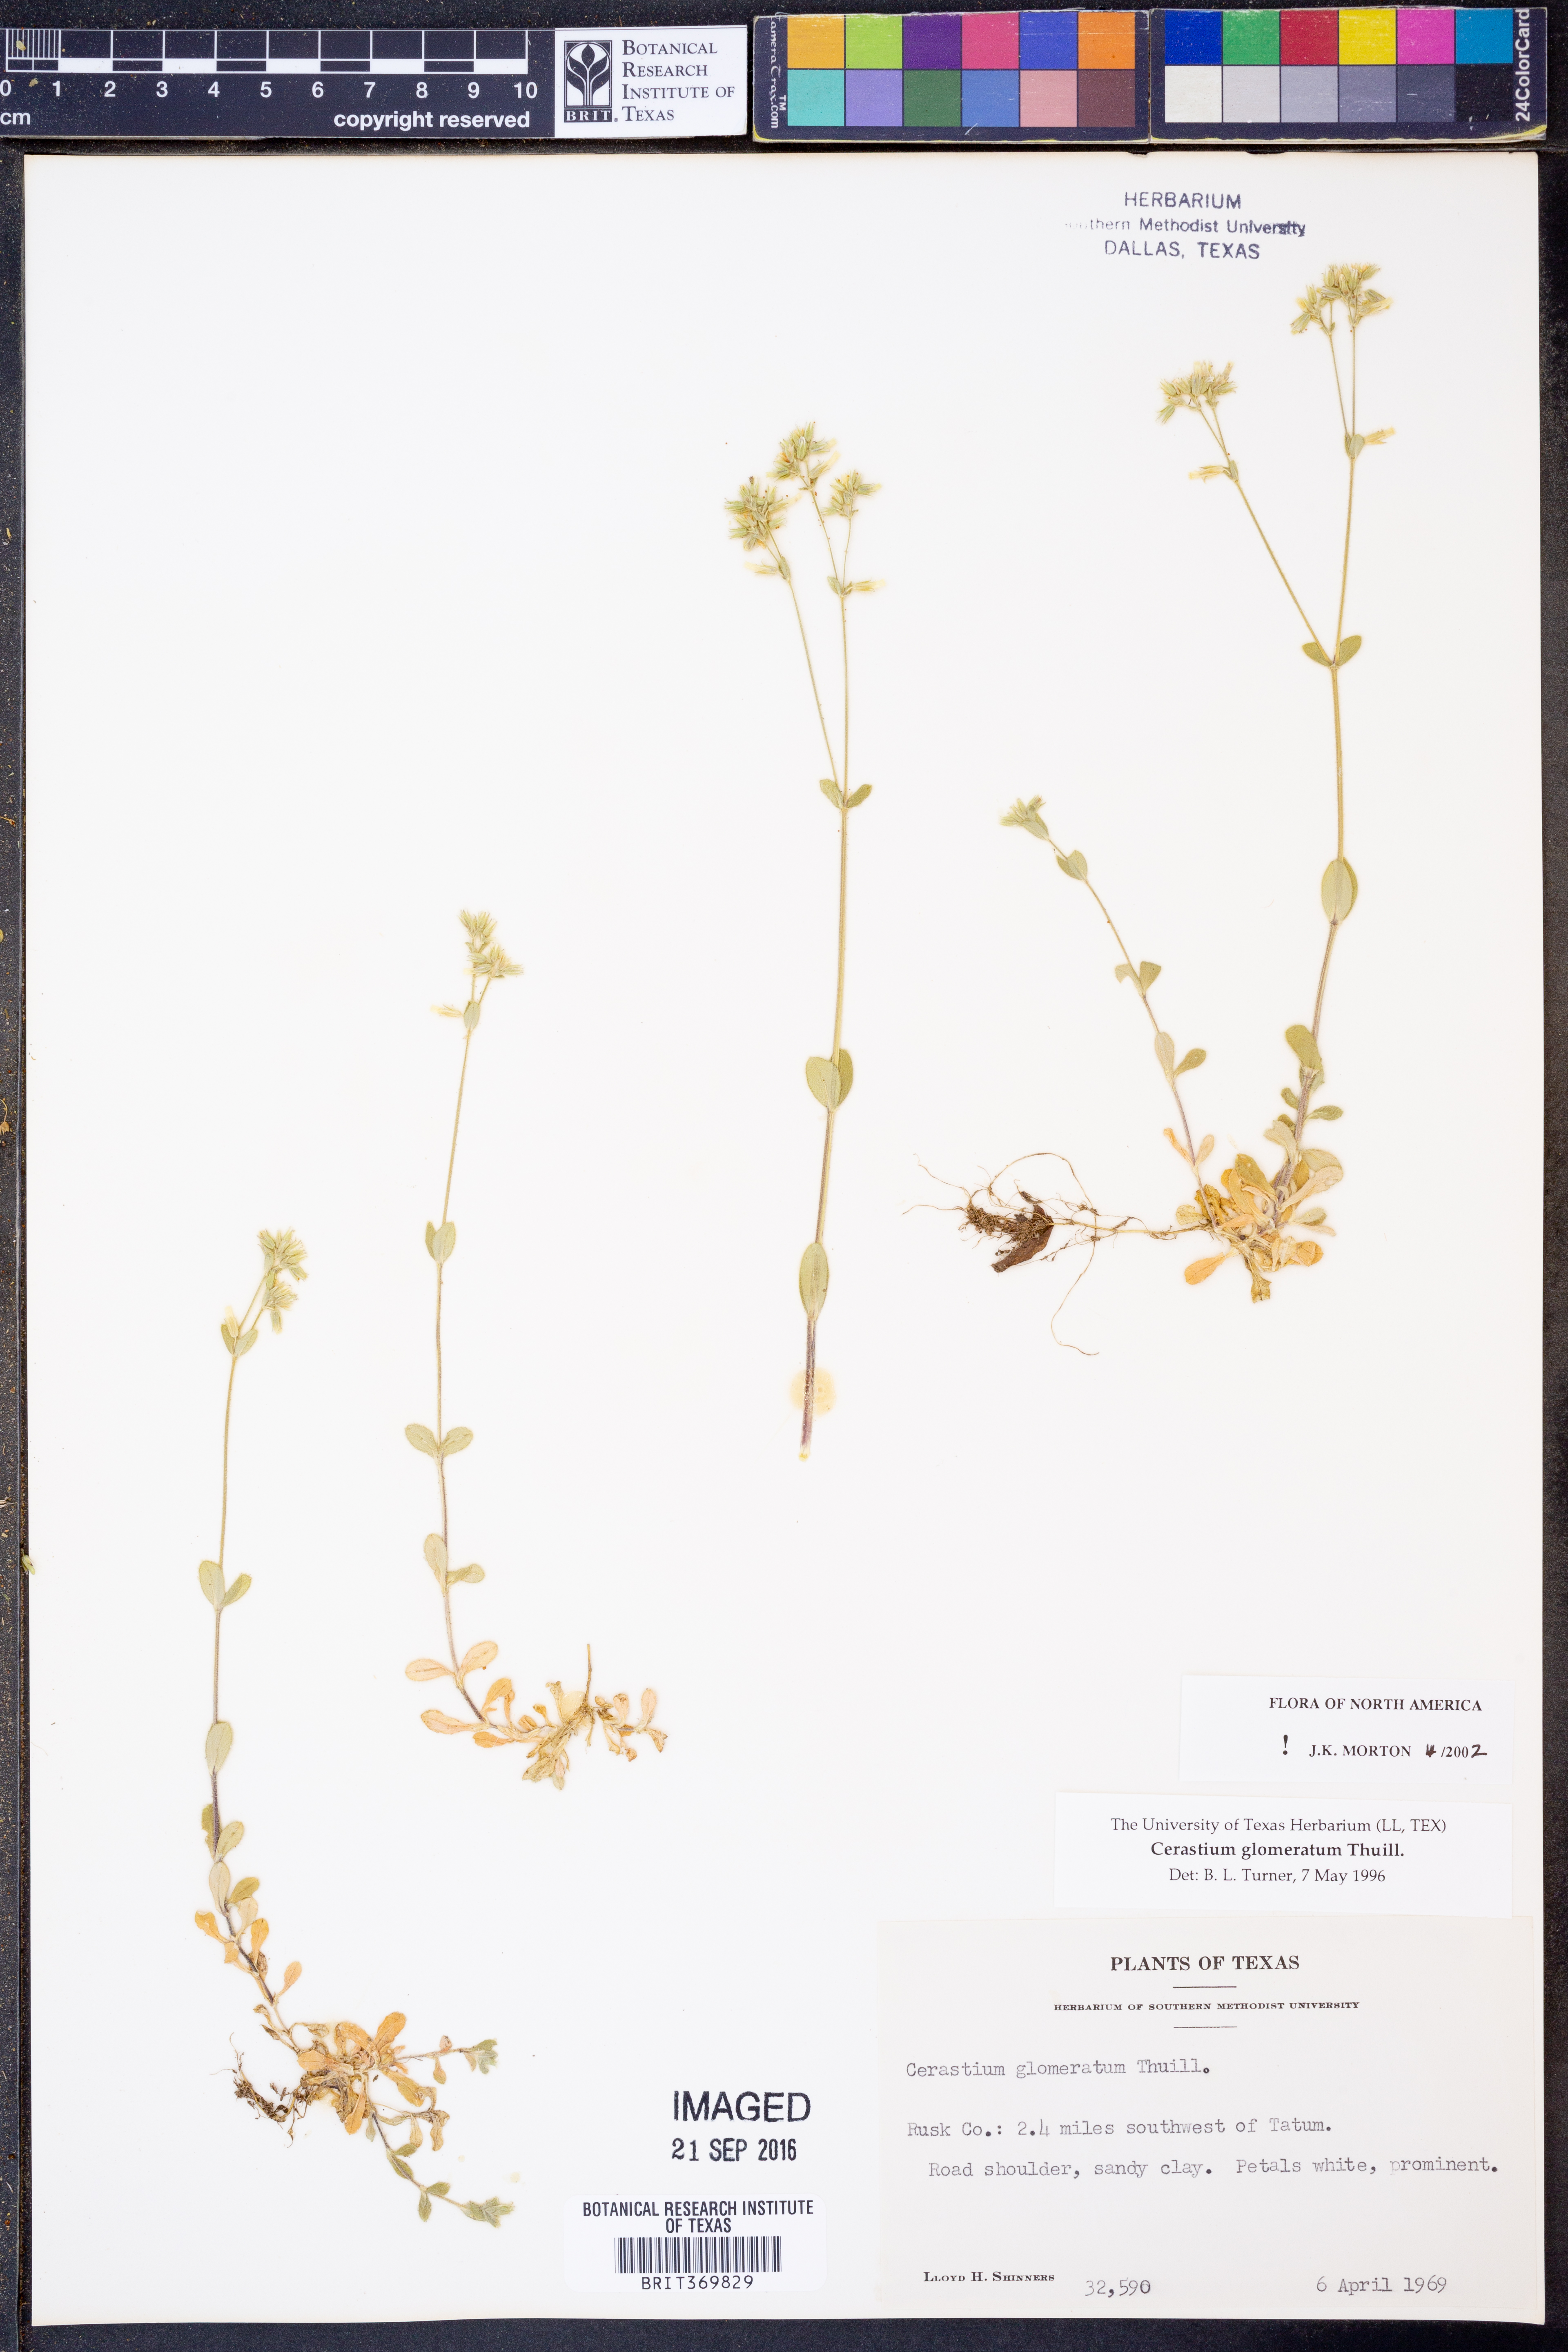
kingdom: Plantae
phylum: Tracheophyta
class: Magnoliopsida
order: Caryophyllales
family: Caryophyllaceae
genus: Cerastium
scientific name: Cerastium glomeratum
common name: Sticky chickweed
